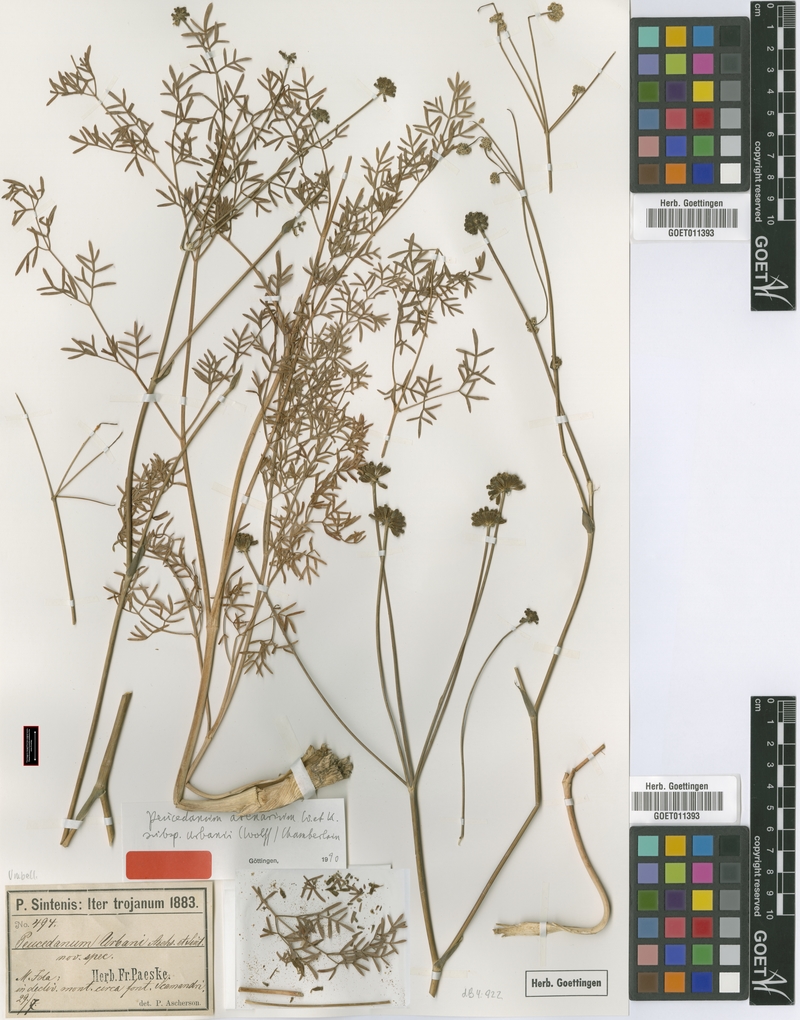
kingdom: Plantae
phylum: Tracheophyta
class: Magnoliopsida
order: Apiales
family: Apiaceae
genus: Taeniopetalum
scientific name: Taeniopetalum urbani
